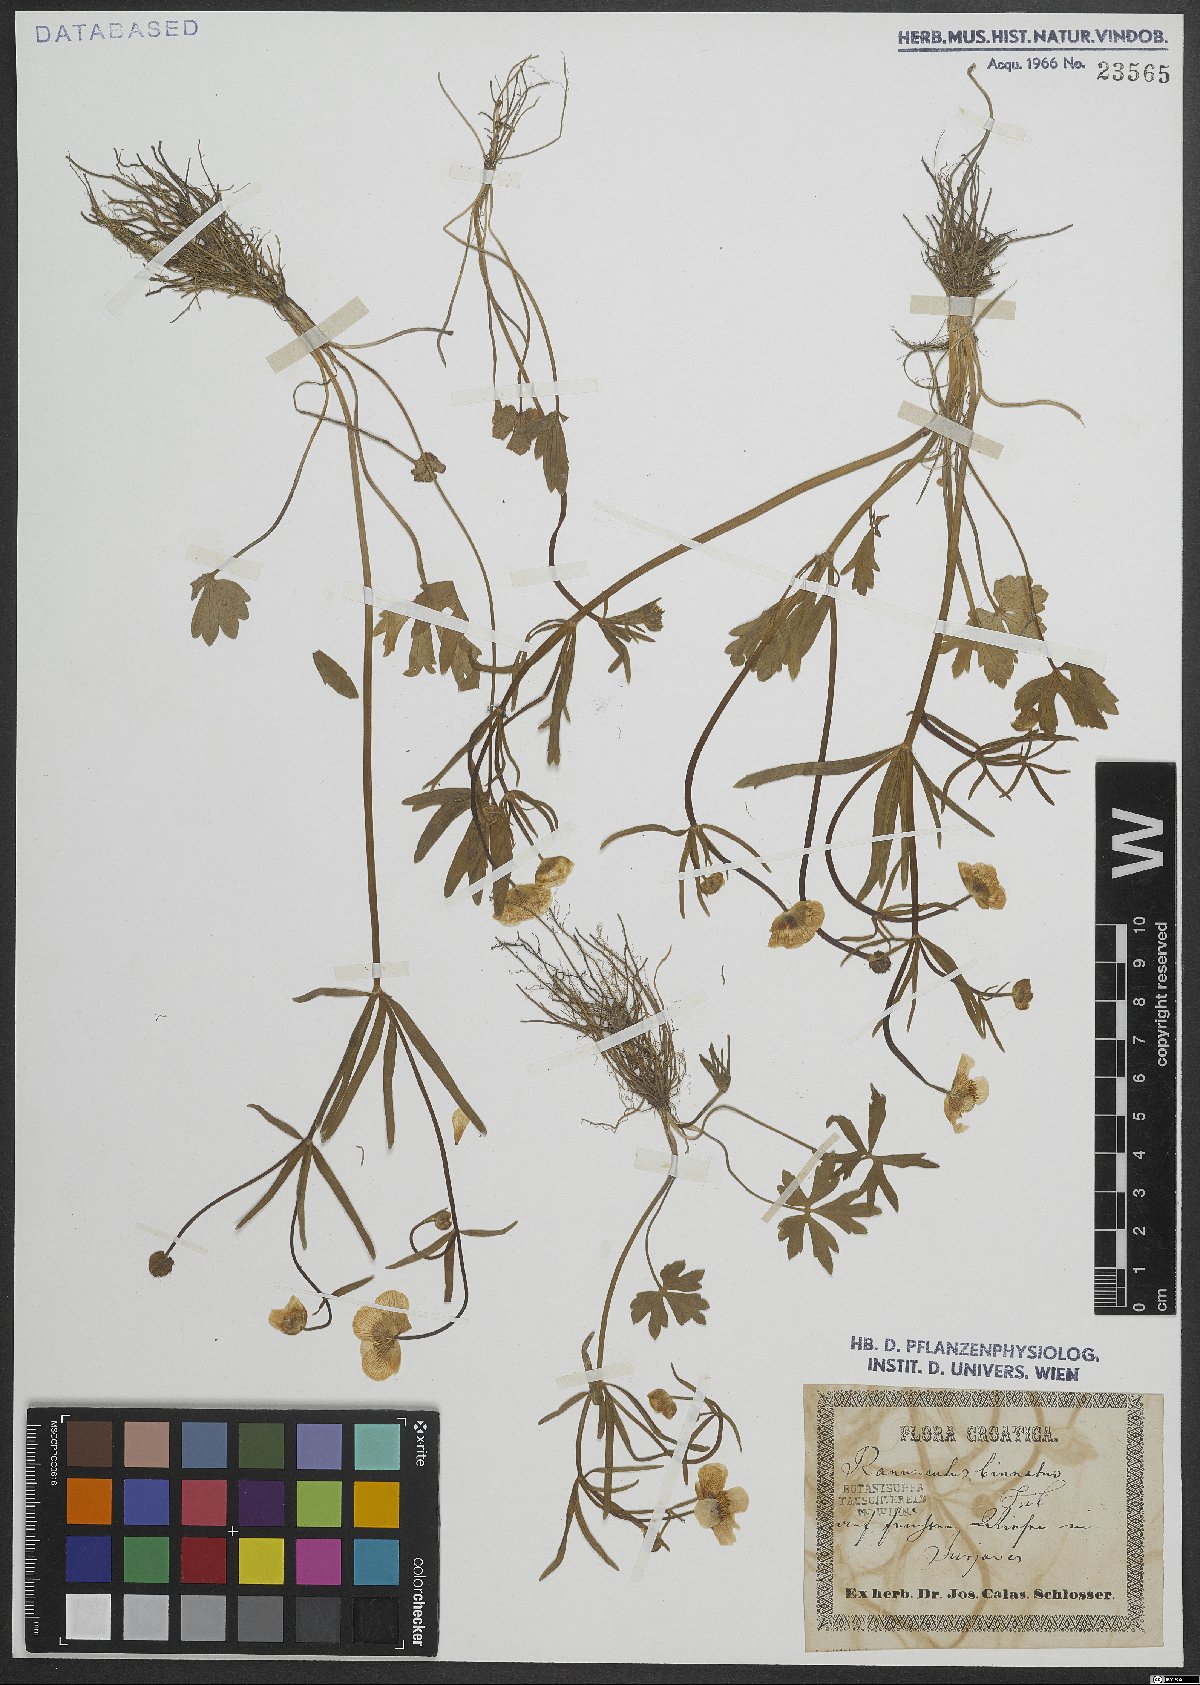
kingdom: Plantae
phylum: Tracheophyta
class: Magnoliopsida
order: Ranunculales
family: Ranunculaceae
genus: Ranunculus
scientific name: Ranunculus binatus
